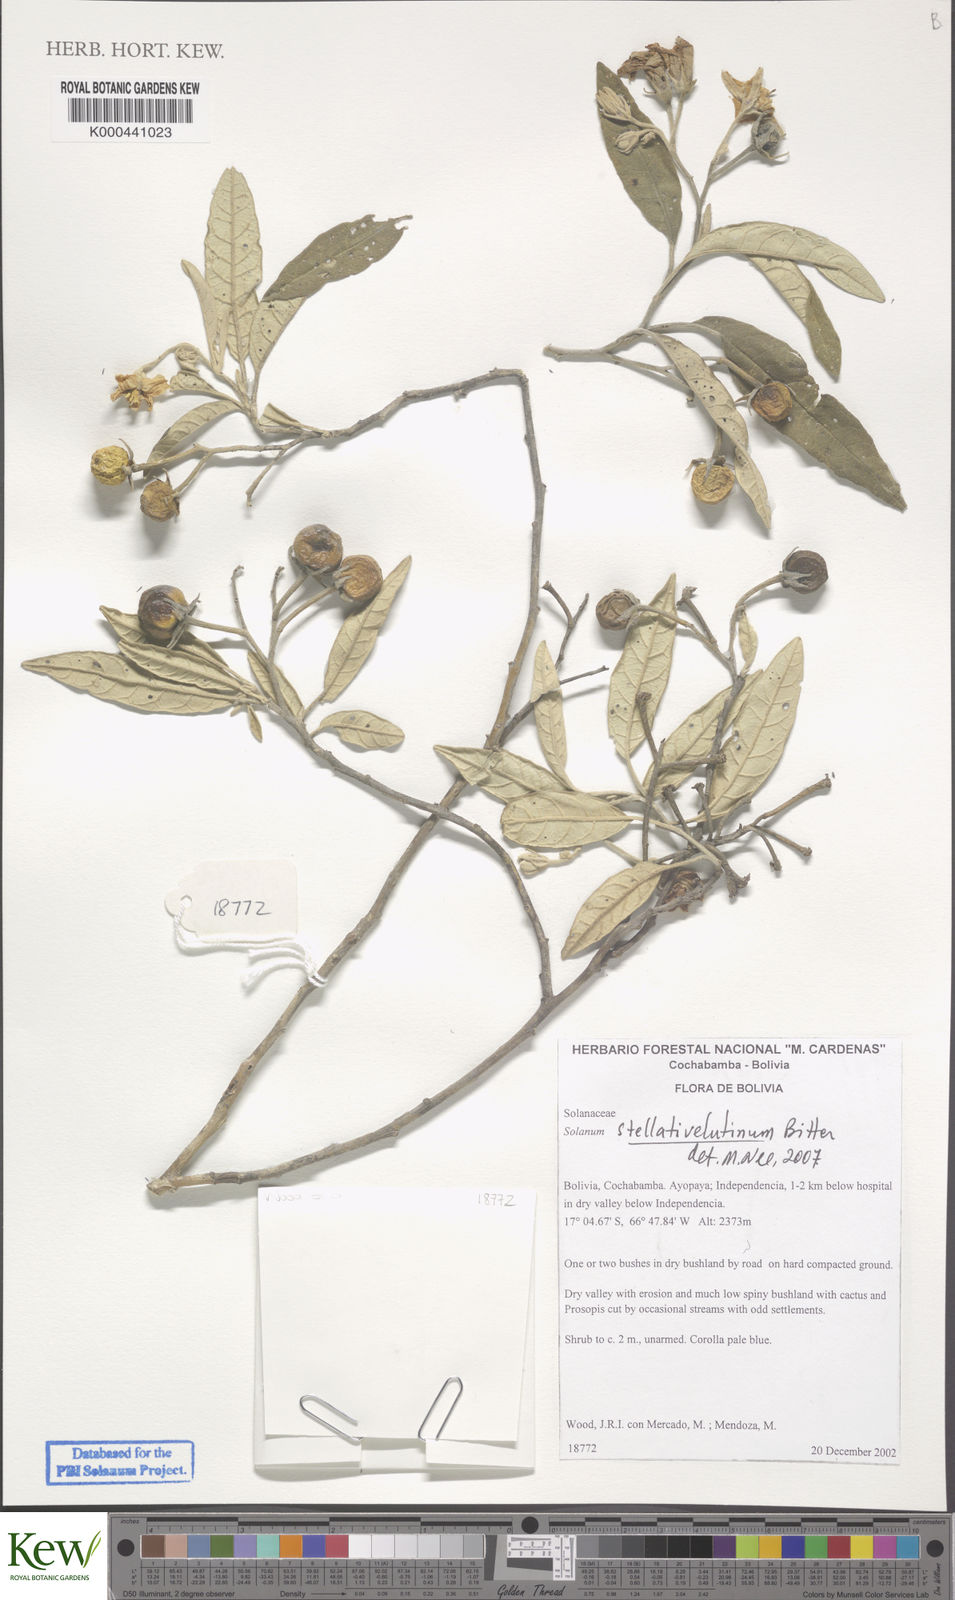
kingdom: Plantae
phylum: Tracheophyta
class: Magnoliopsida
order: Solanales
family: Solanaceae
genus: Solanum
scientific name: Solanum stellativelutinum
